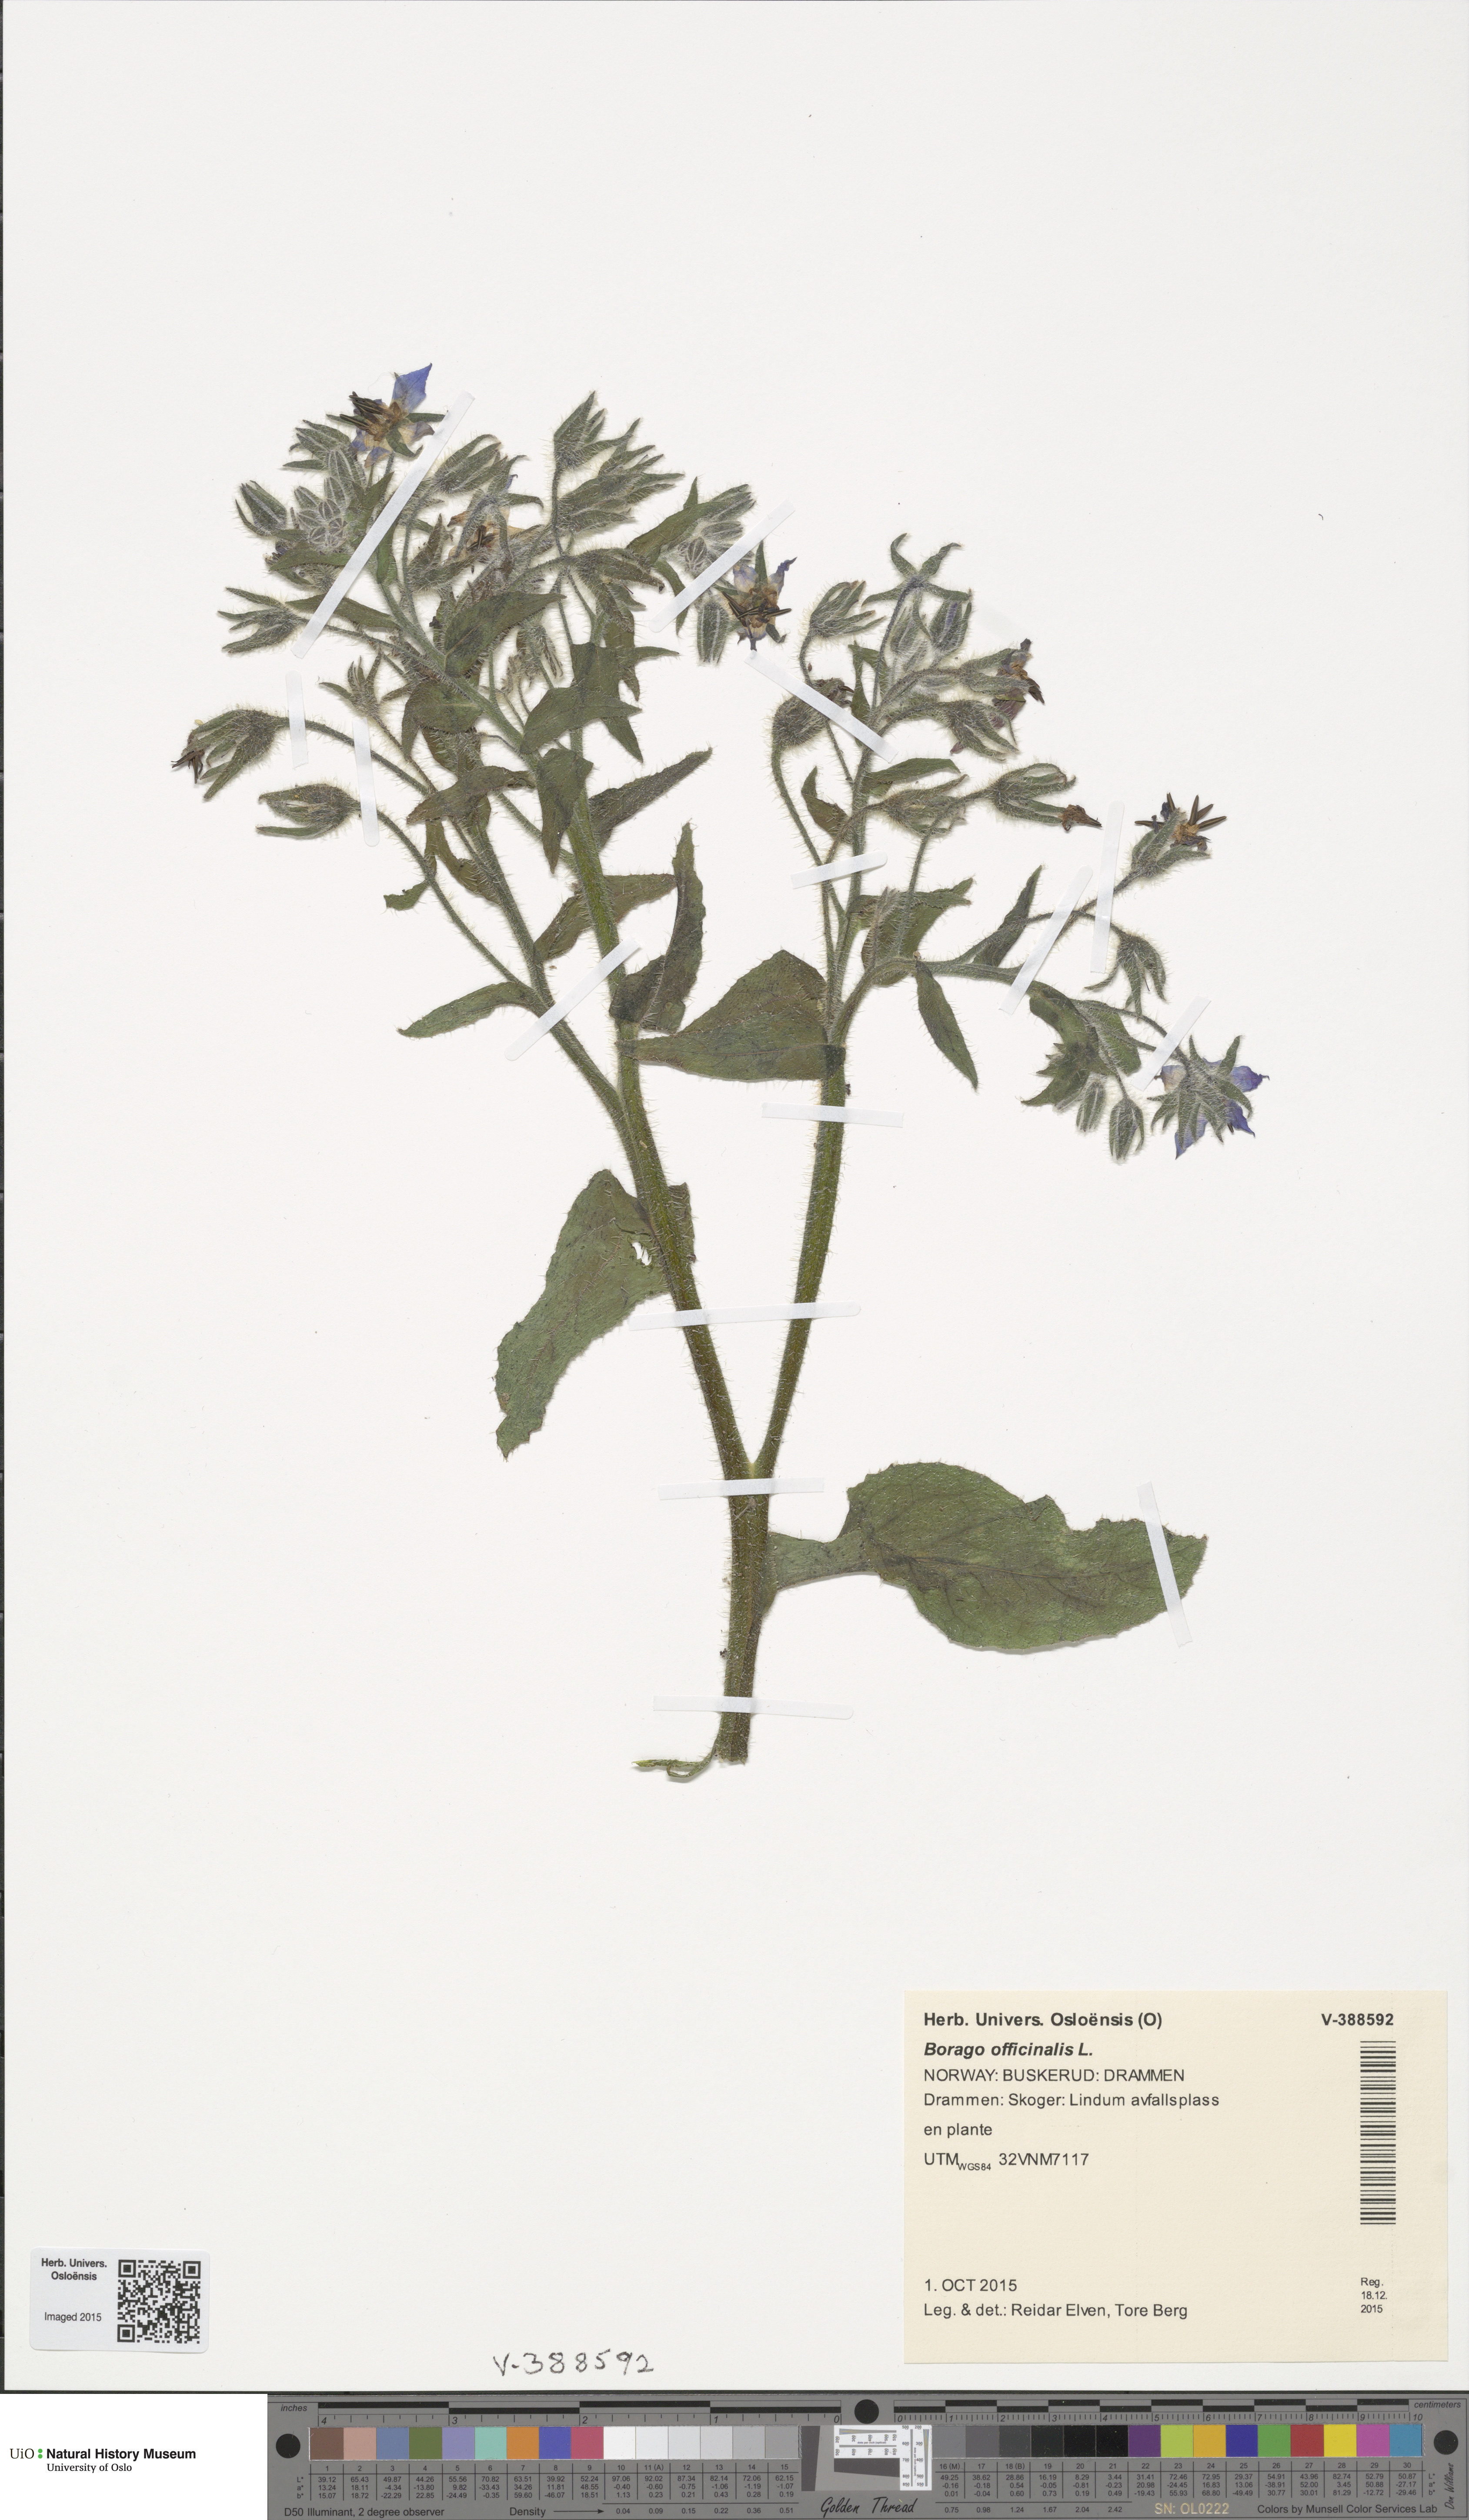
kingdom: Plantae
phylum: Tracheophyta
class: Magnoliopsida
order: Boraginales
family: Boraginaceae
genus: Borago
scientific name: Borago officinalis
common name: Borage
